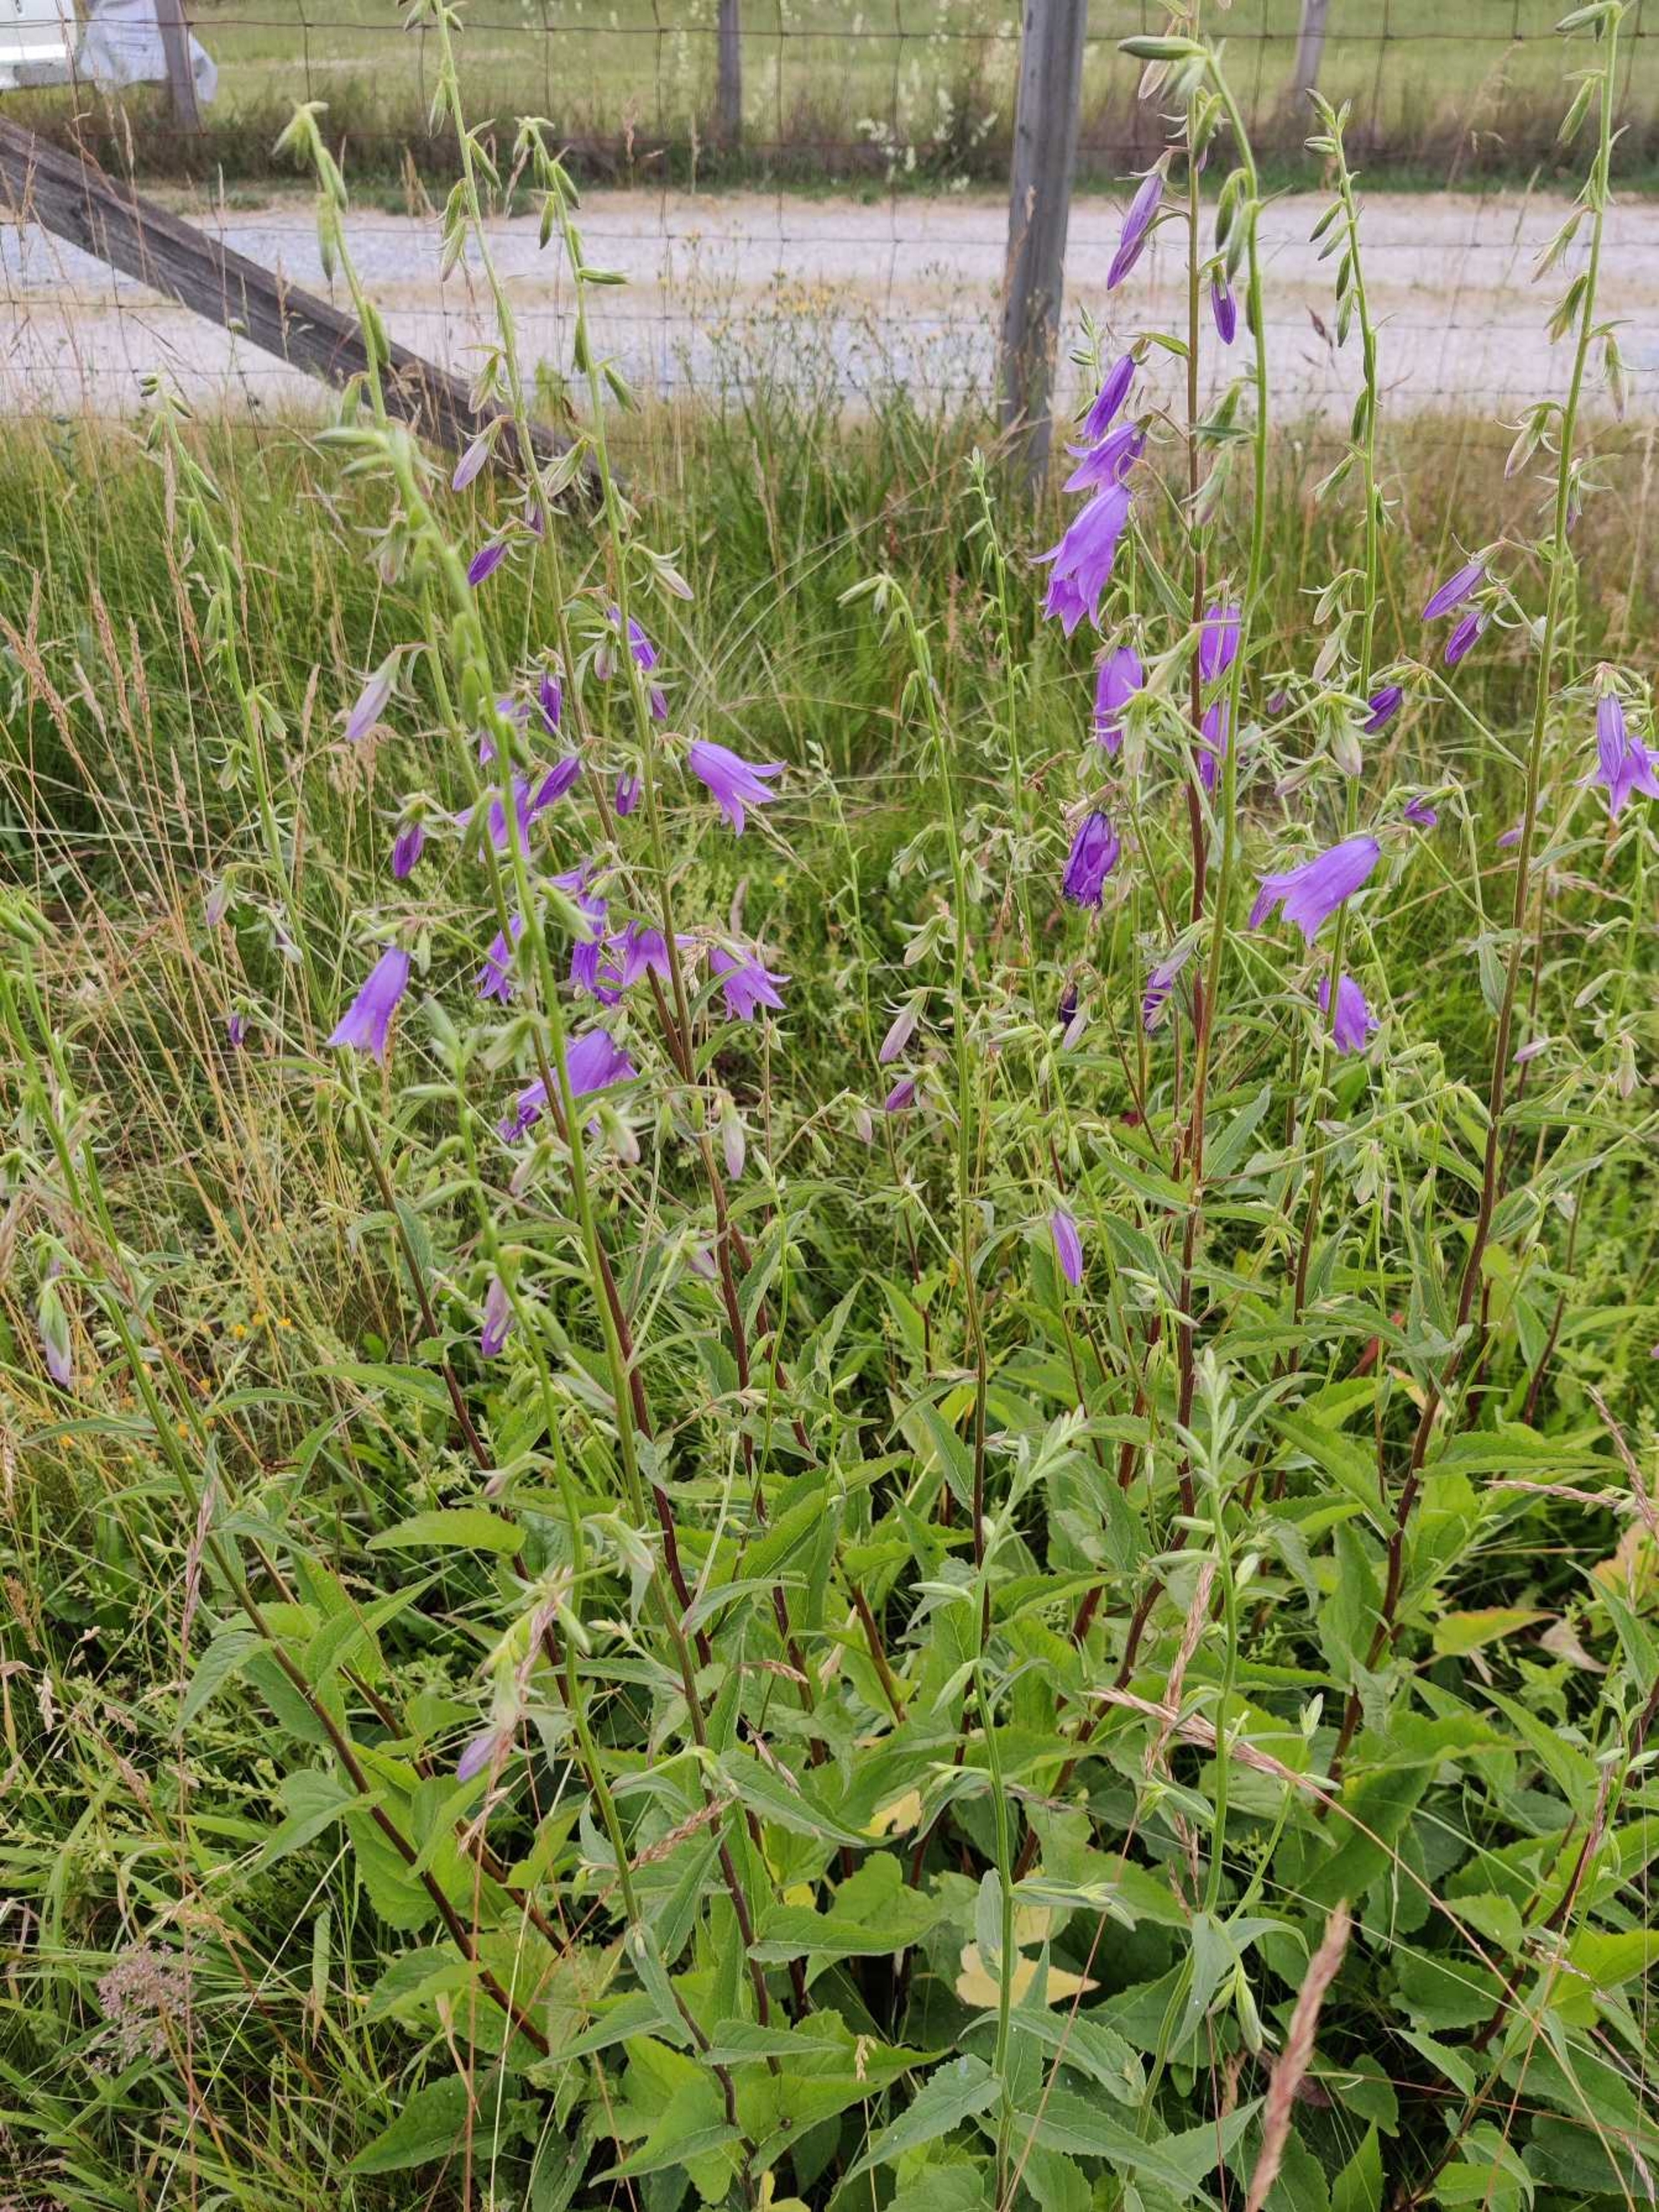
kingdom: Plantae
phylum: Tracheophyta
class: Magnoliopsida
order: Asterales
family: Campanulaceae
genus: Campanula
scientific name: Campanula rapunculoides
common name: Ensidig klokke
